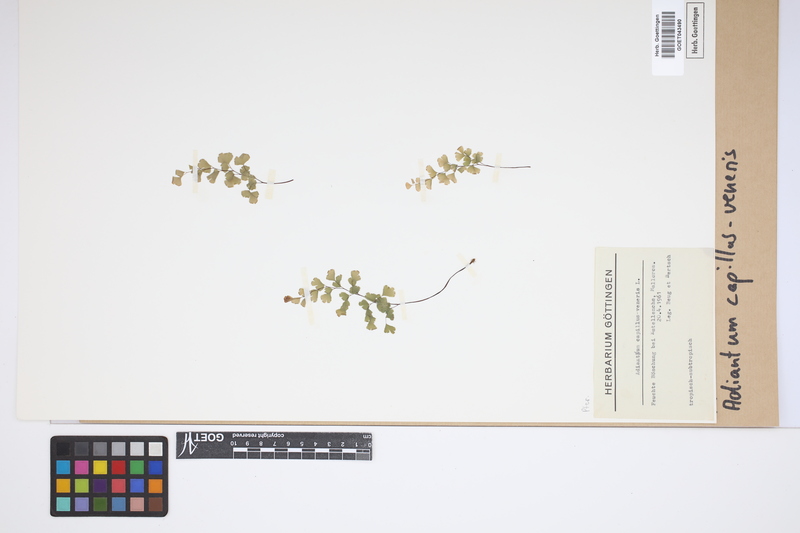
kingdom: Plantae
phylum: Tracheophyta
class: Polypodiopsida
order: Polypodiales
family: Pteridaceae
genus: Adiantum
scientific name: Adiantum capillus-veneris
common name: Maidenhair fern
